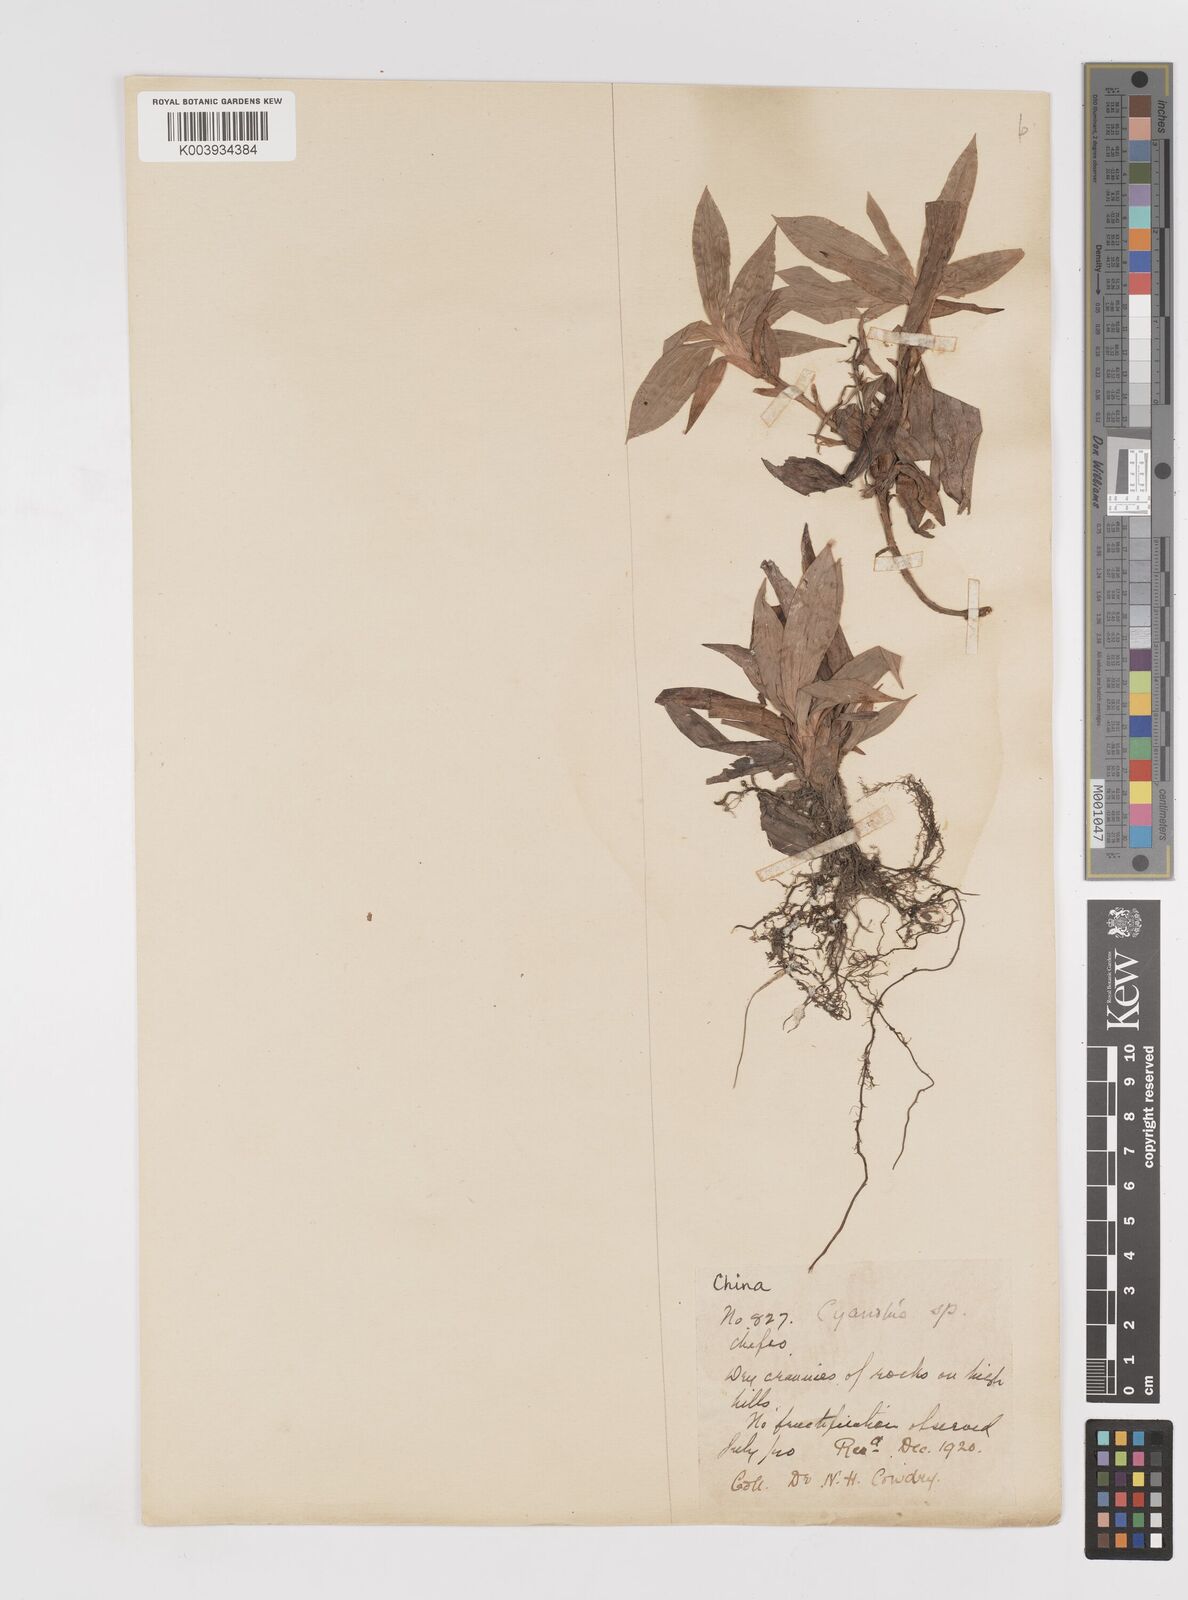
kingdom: Plantae
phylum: Tracheophyta
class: Liliopsida
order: Commelinales
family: Commelinaceae
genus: Cyanotis
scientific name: Cyanotis
